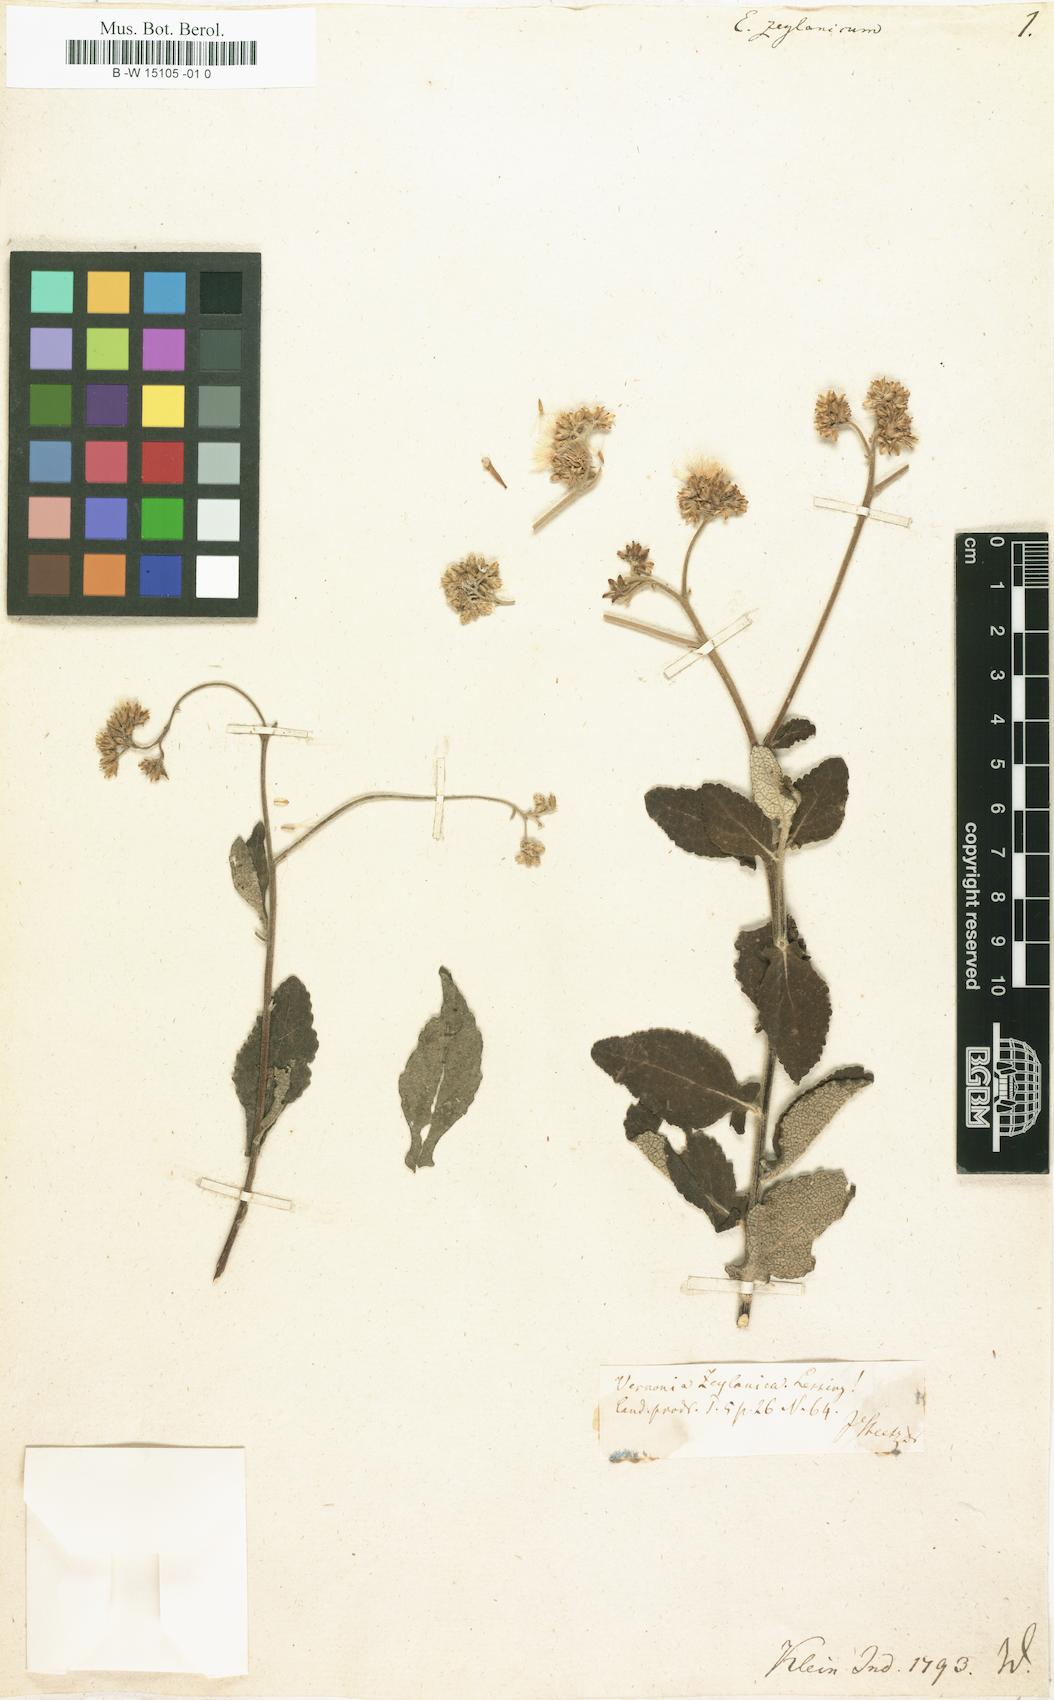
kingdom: Plantae
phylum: Tracheophyta
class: Magnoliopsida
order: Asterales
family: Asteraceae
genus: Eupatorium
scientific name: Eupatorium
